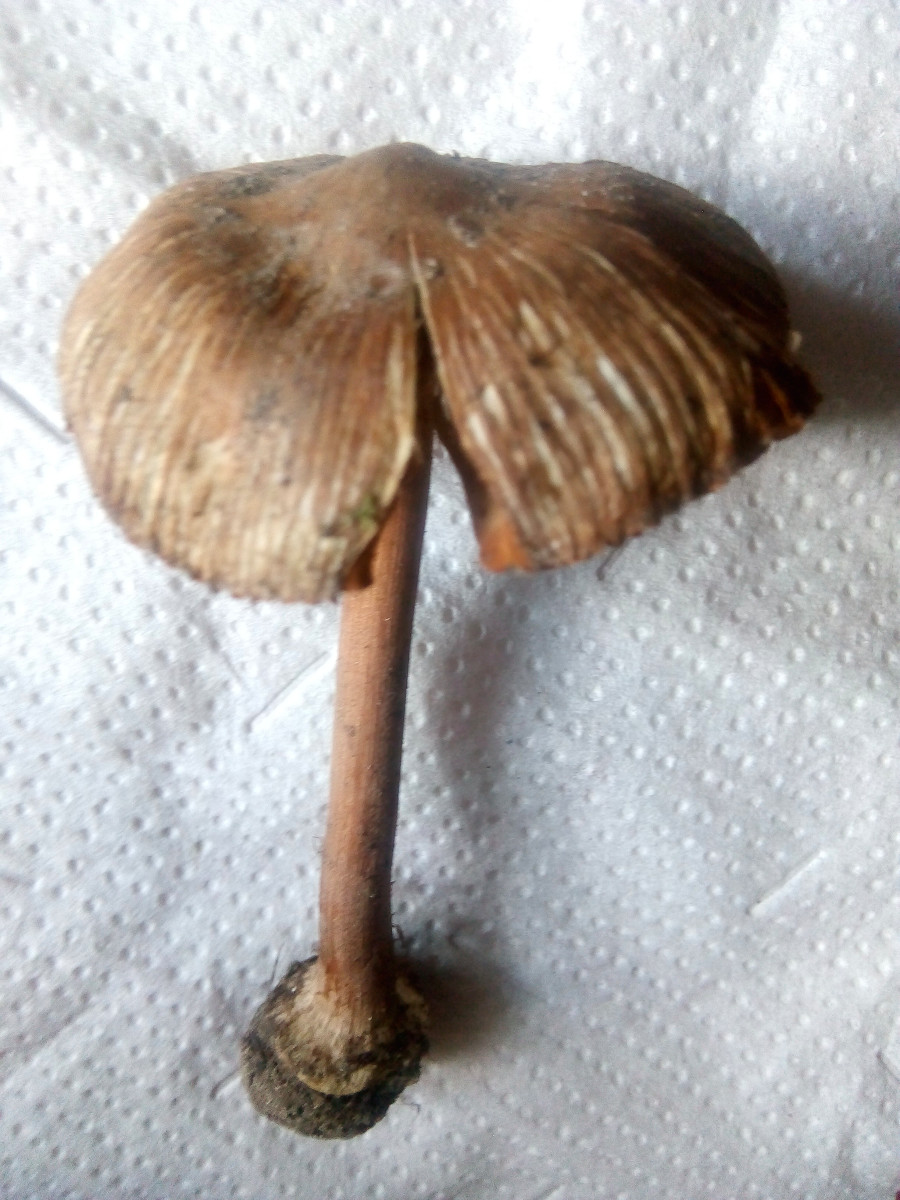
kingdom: Fungi
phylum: Basidiomycota
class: Agaricomycetes
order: Agaricales
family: Inocybaceae
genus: Inocybe
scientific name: Inocybe asterospora
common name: stjernesporet trævlhat
